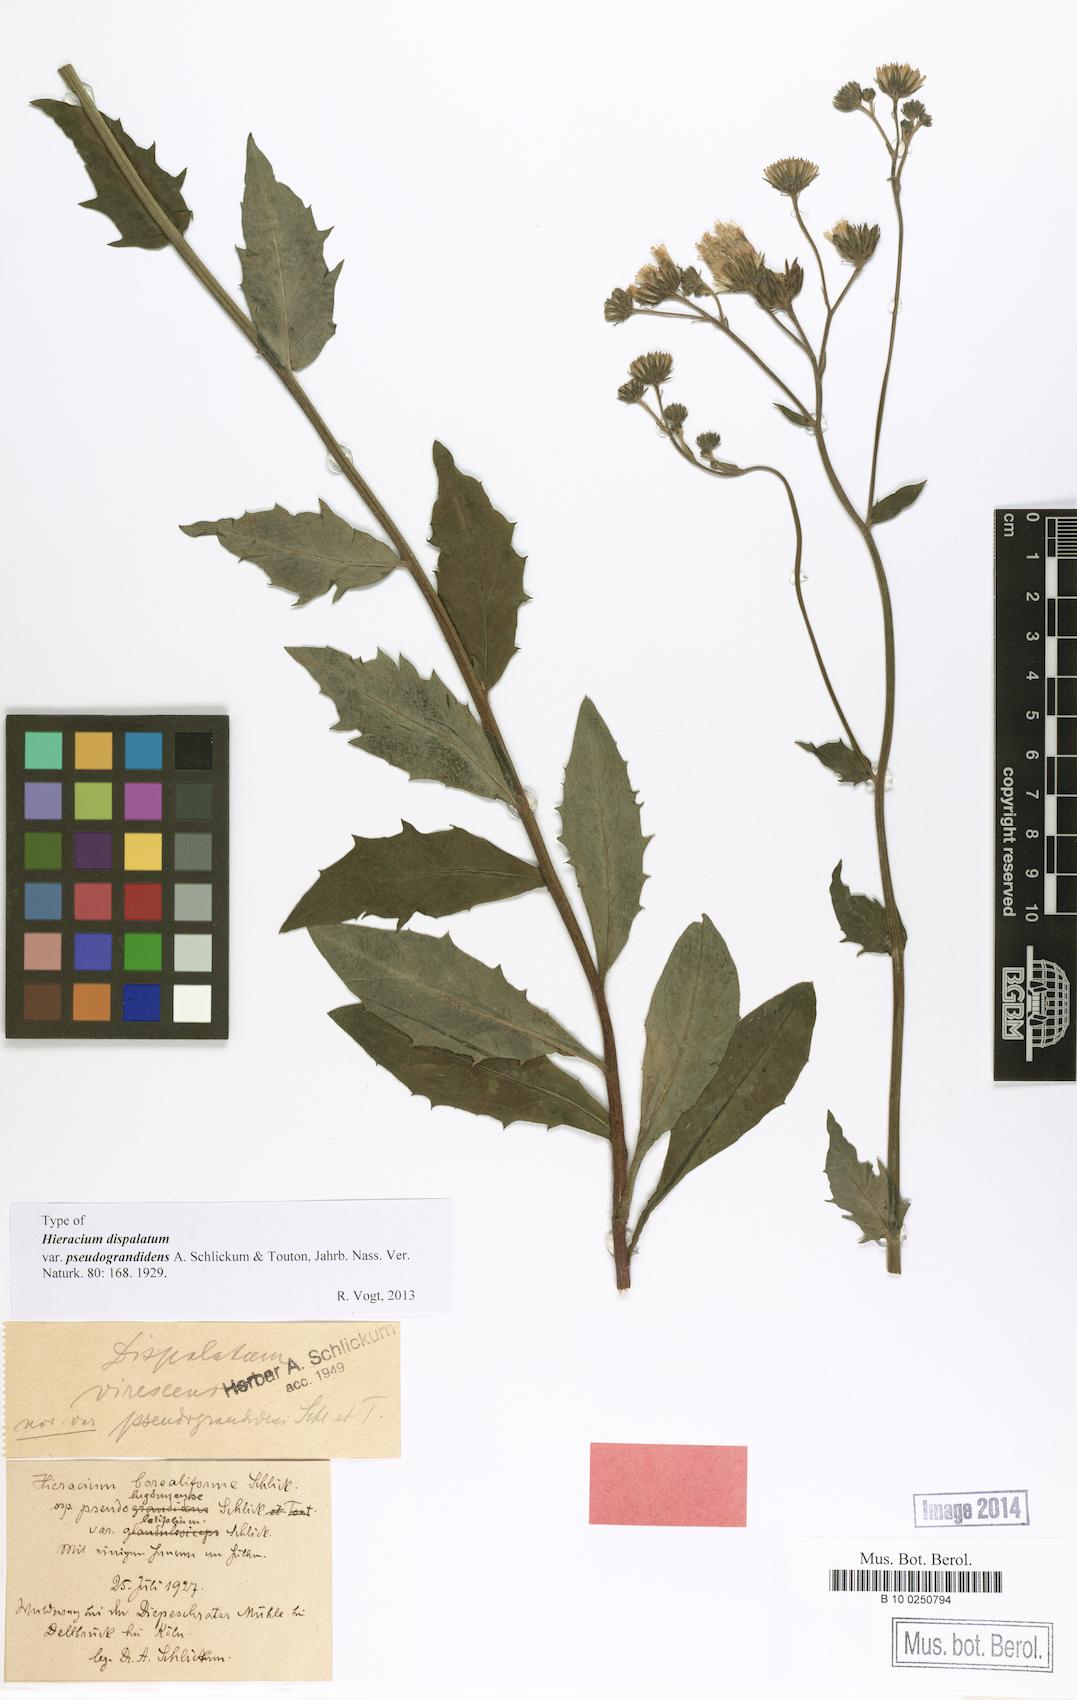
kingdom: Plantae
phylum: Tracheophyta
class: Magnoliopsida
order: Asterales
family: Asteraceae
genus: Hieracium
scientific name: Hieracium sabaudum
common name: New england hawkweed
